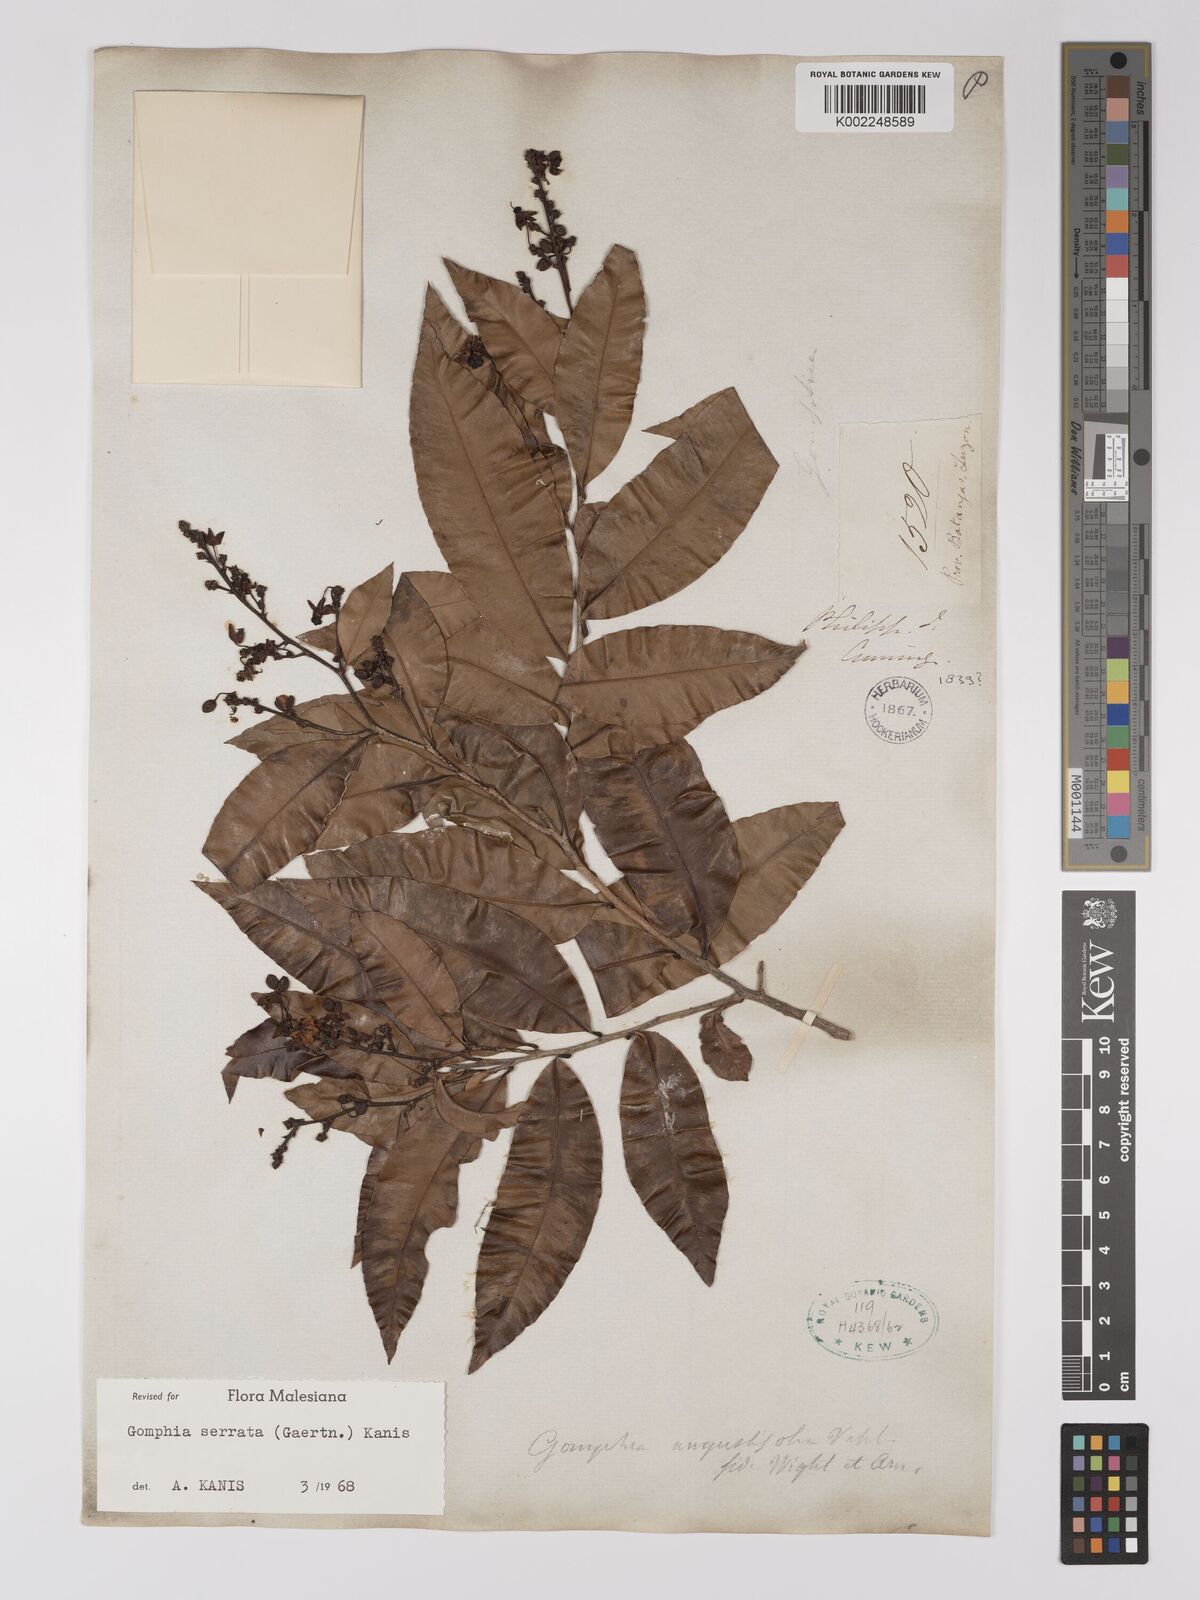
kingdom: Plantae
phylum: Tracheophyta
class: Magnoliopsida
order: Malpighiales
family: Ochnaceae
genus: Gomphia
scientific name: Gomphia serrata
